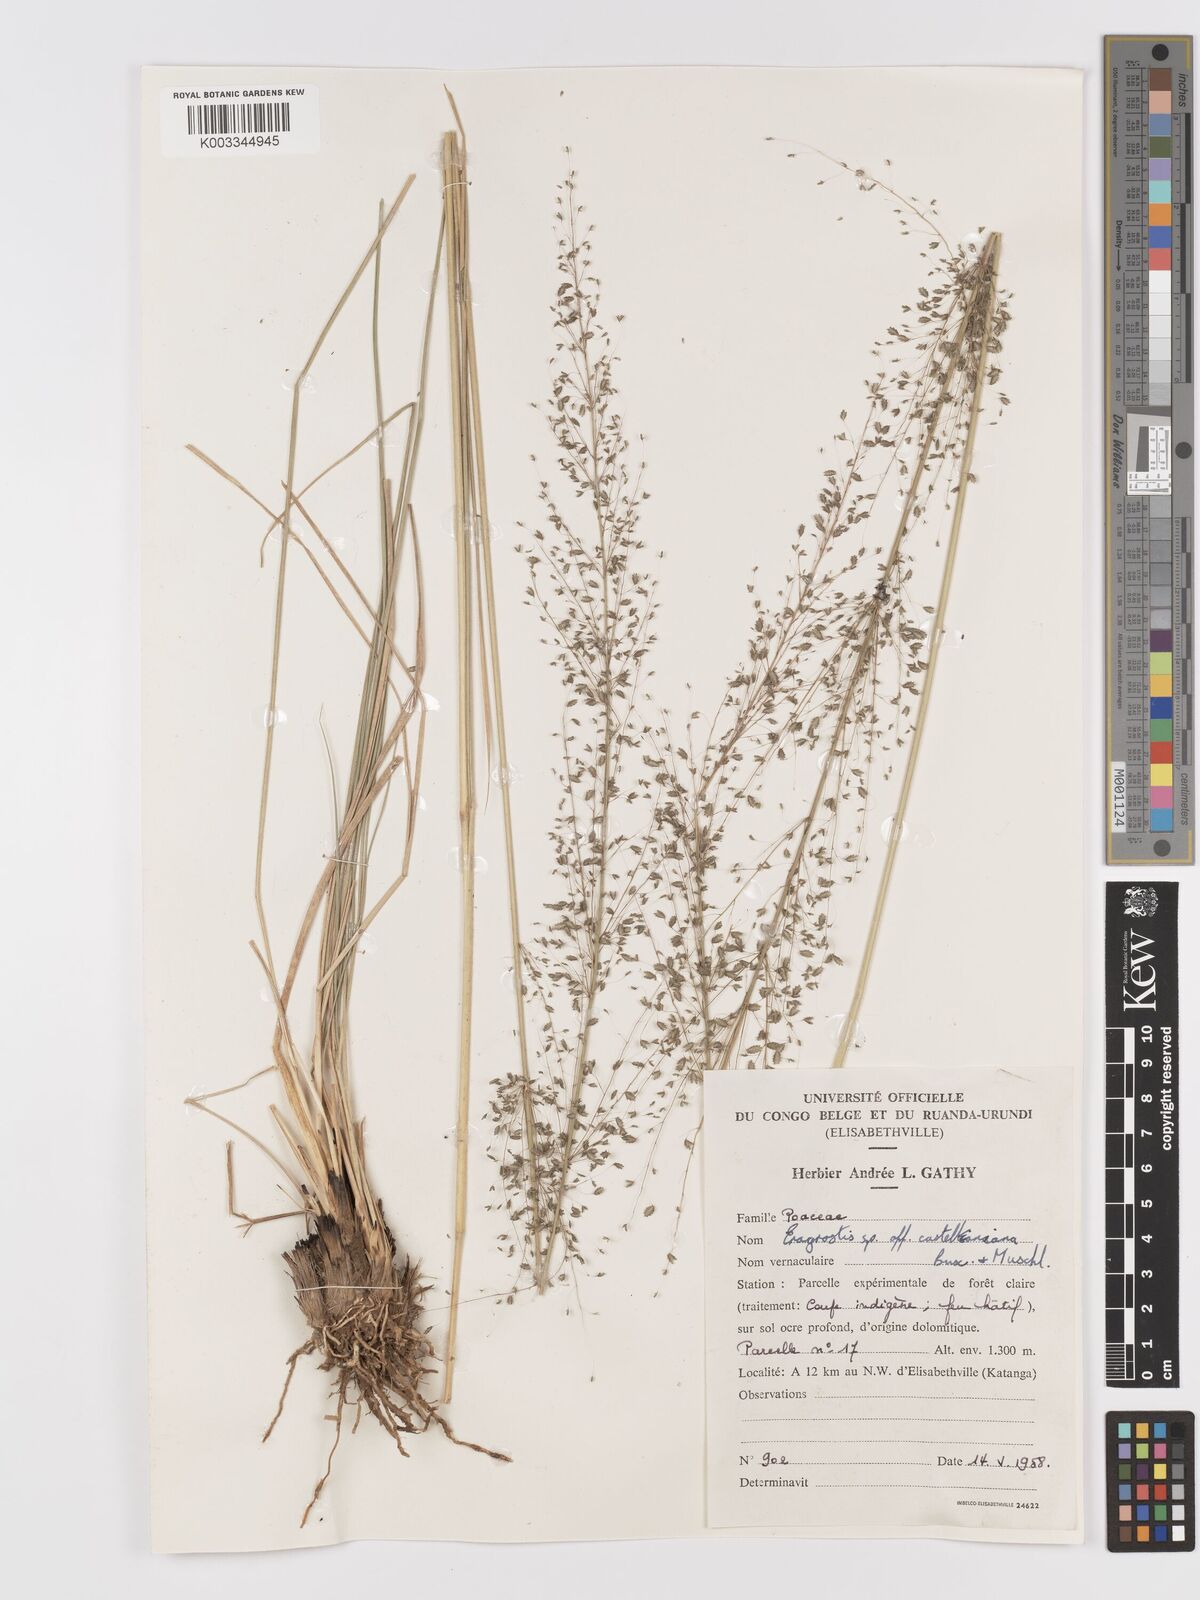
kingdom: Plantae
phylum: Tracheophyta
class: Liliopsida
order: Poales
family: Poaceae
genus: Eragrostis
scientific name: Eragrostis mollior
